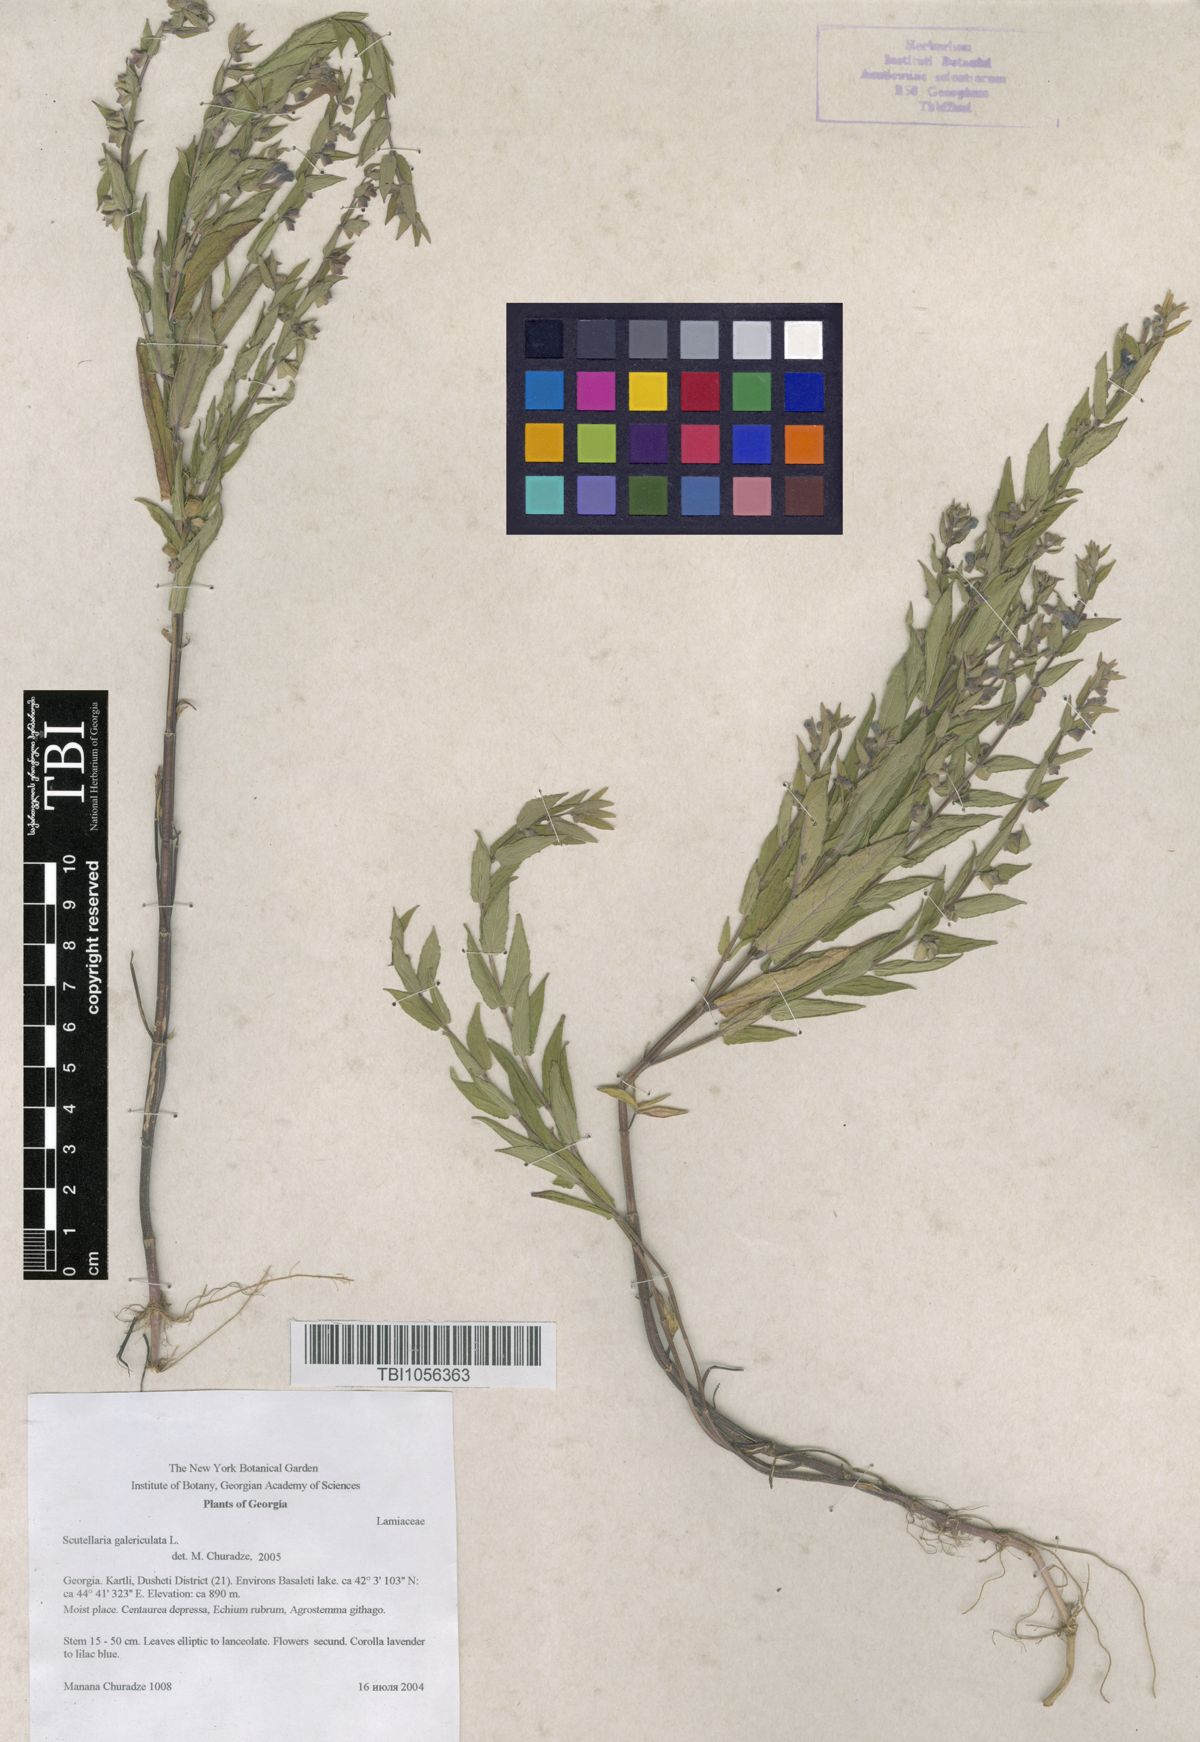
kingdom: Plantae
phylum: Tracheophyta
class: Magnoliopsida
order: Lamiales
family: Lamiaceae
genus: Scutellaria
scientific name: Scutellaria galericulata
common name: Skullcap
